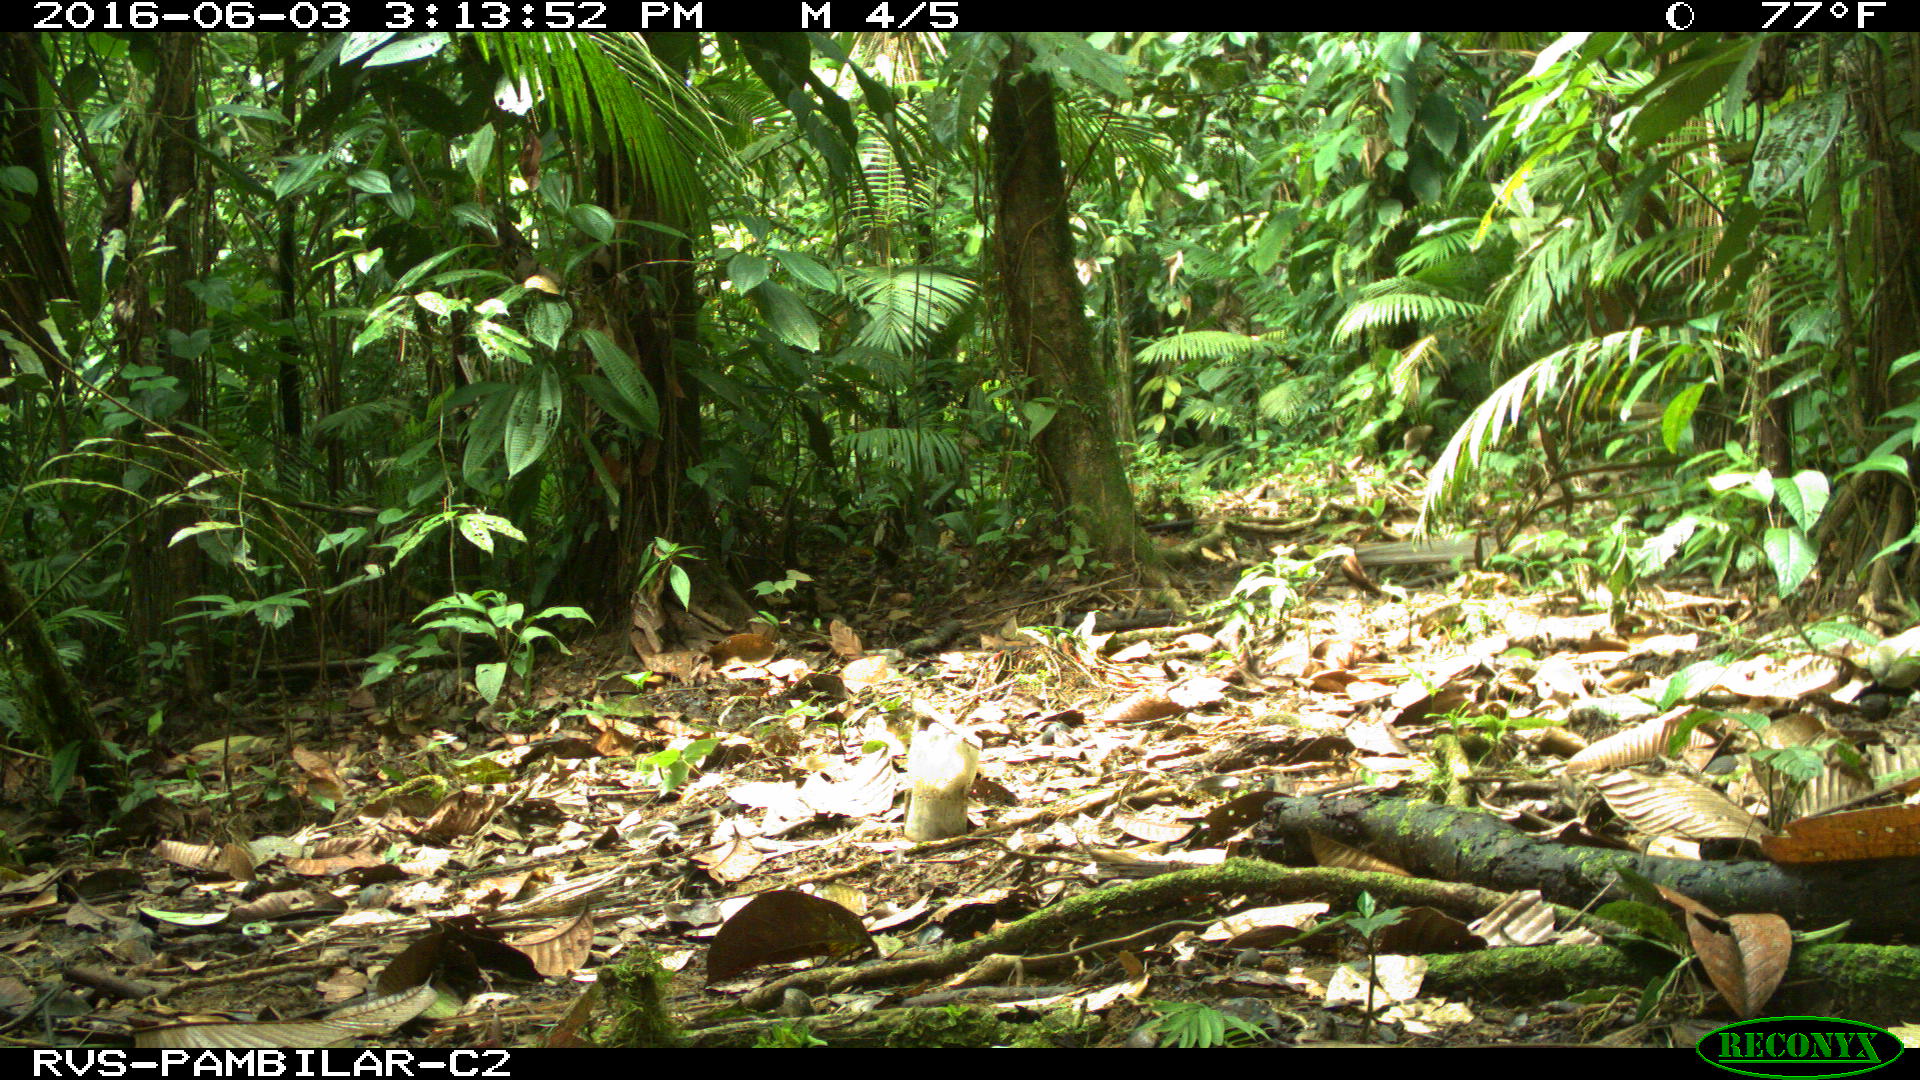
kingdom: Animalia
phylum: Chordata
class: Mammalia
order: Rodentia
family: Dasyproctidae
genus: Dasyprocta
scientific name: Dasyprocta punctata
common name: Central american agouti
